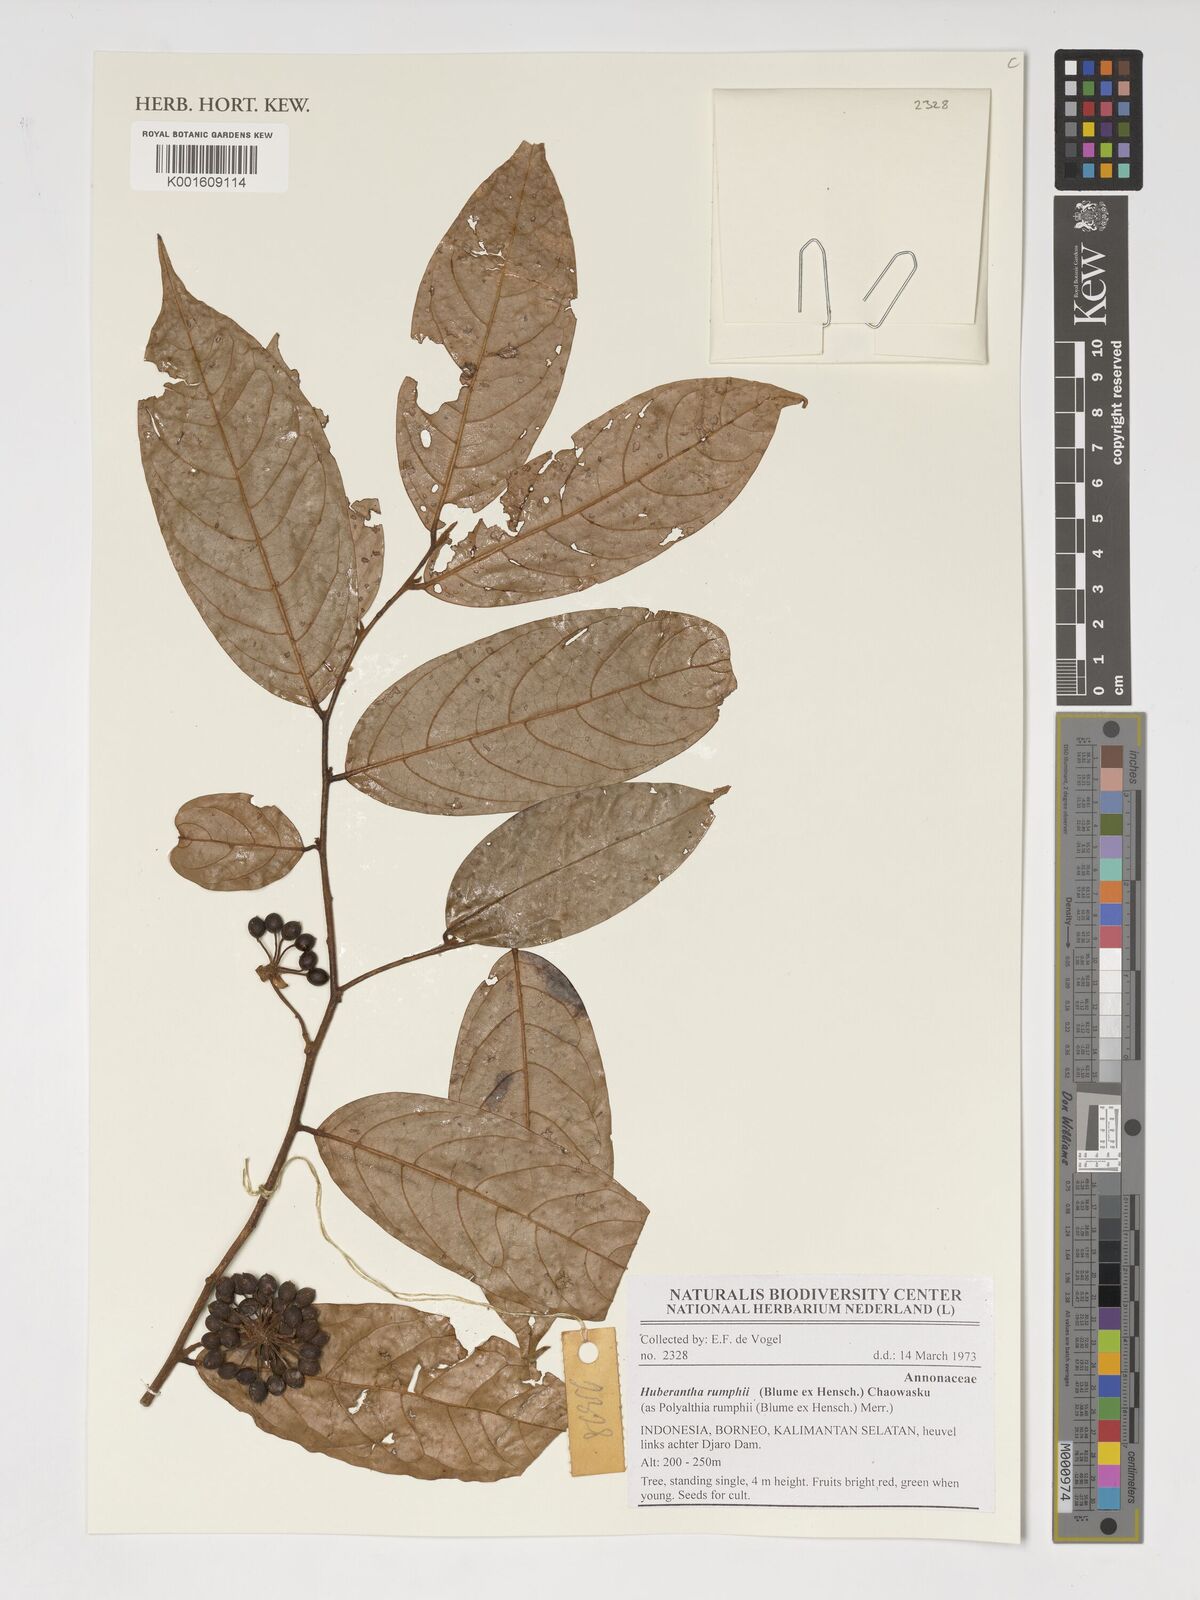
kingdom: Plantae
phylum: Tracheophyta
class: Magnoliopsida
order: Magnoliales
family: Annonaceae
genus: Hubera
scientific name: Hubera rumphii
